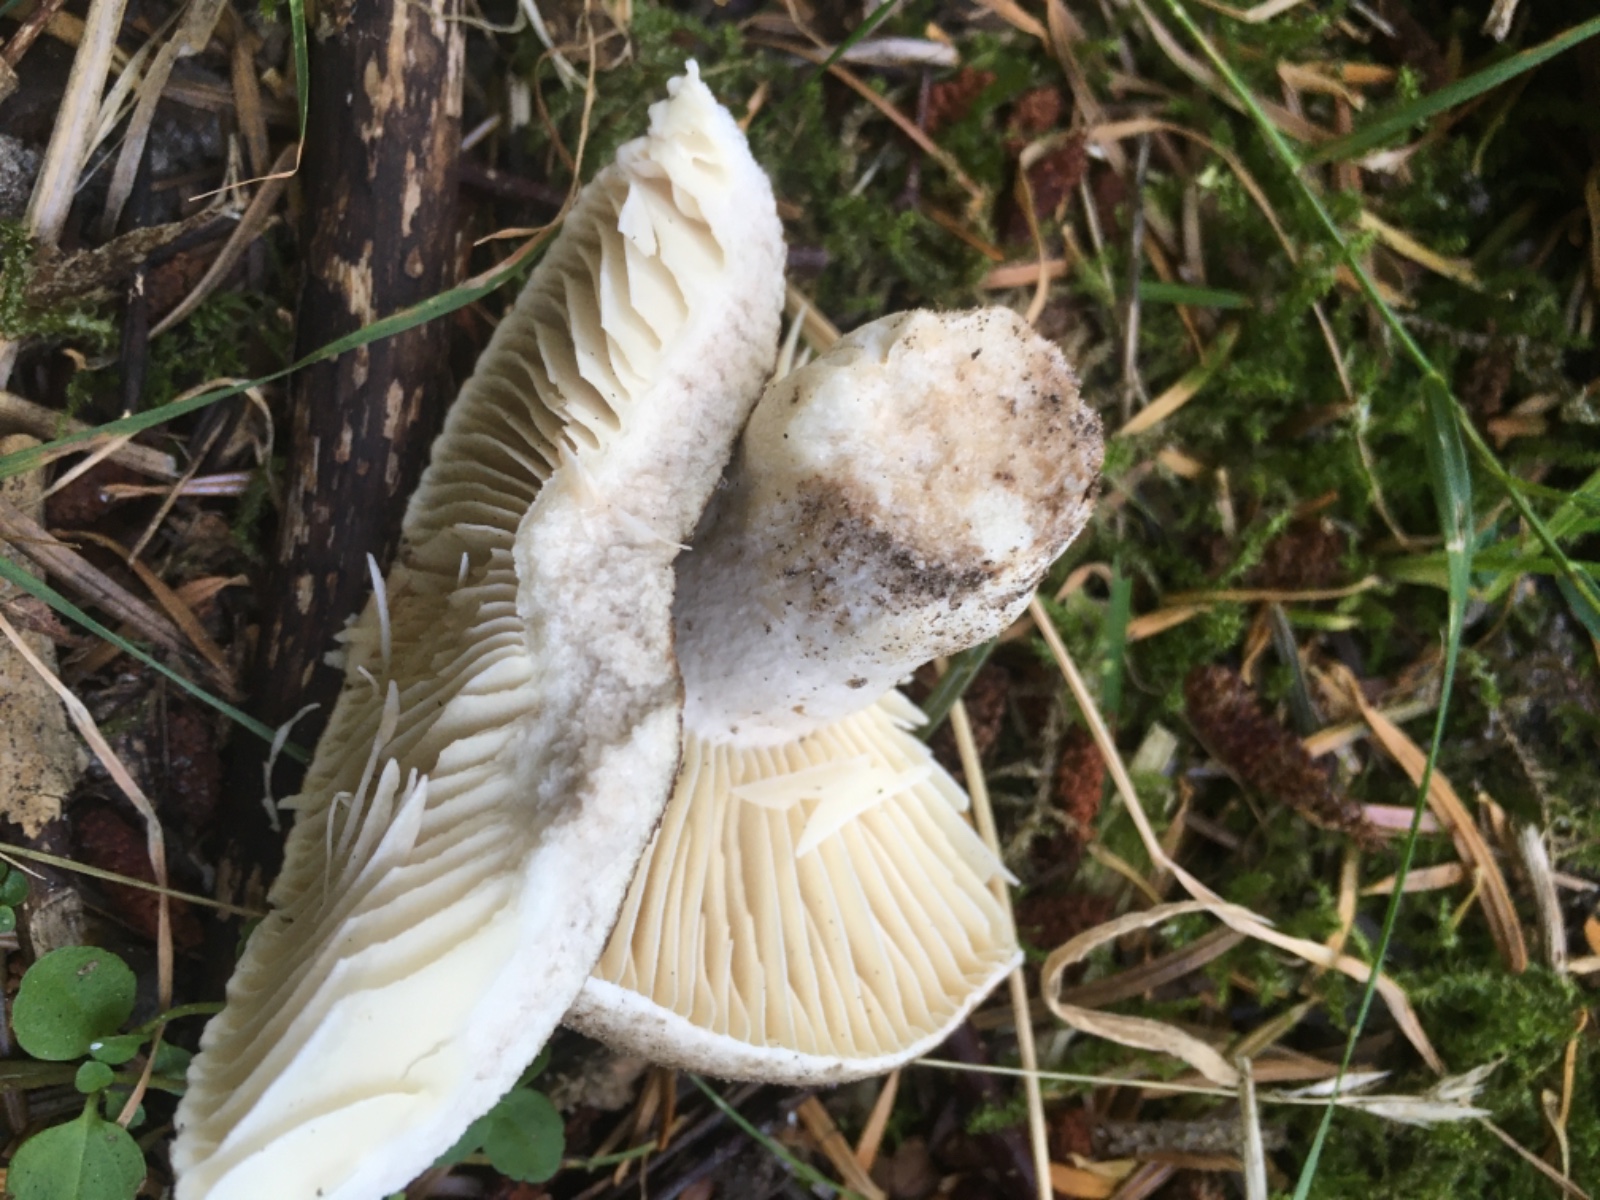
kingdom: Fungi
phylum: Basidiomycota
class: Agaricomycetes
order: Russulales
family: Russulaceae
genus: Russula
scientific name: Russula adusta
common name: sværtende skørhat
